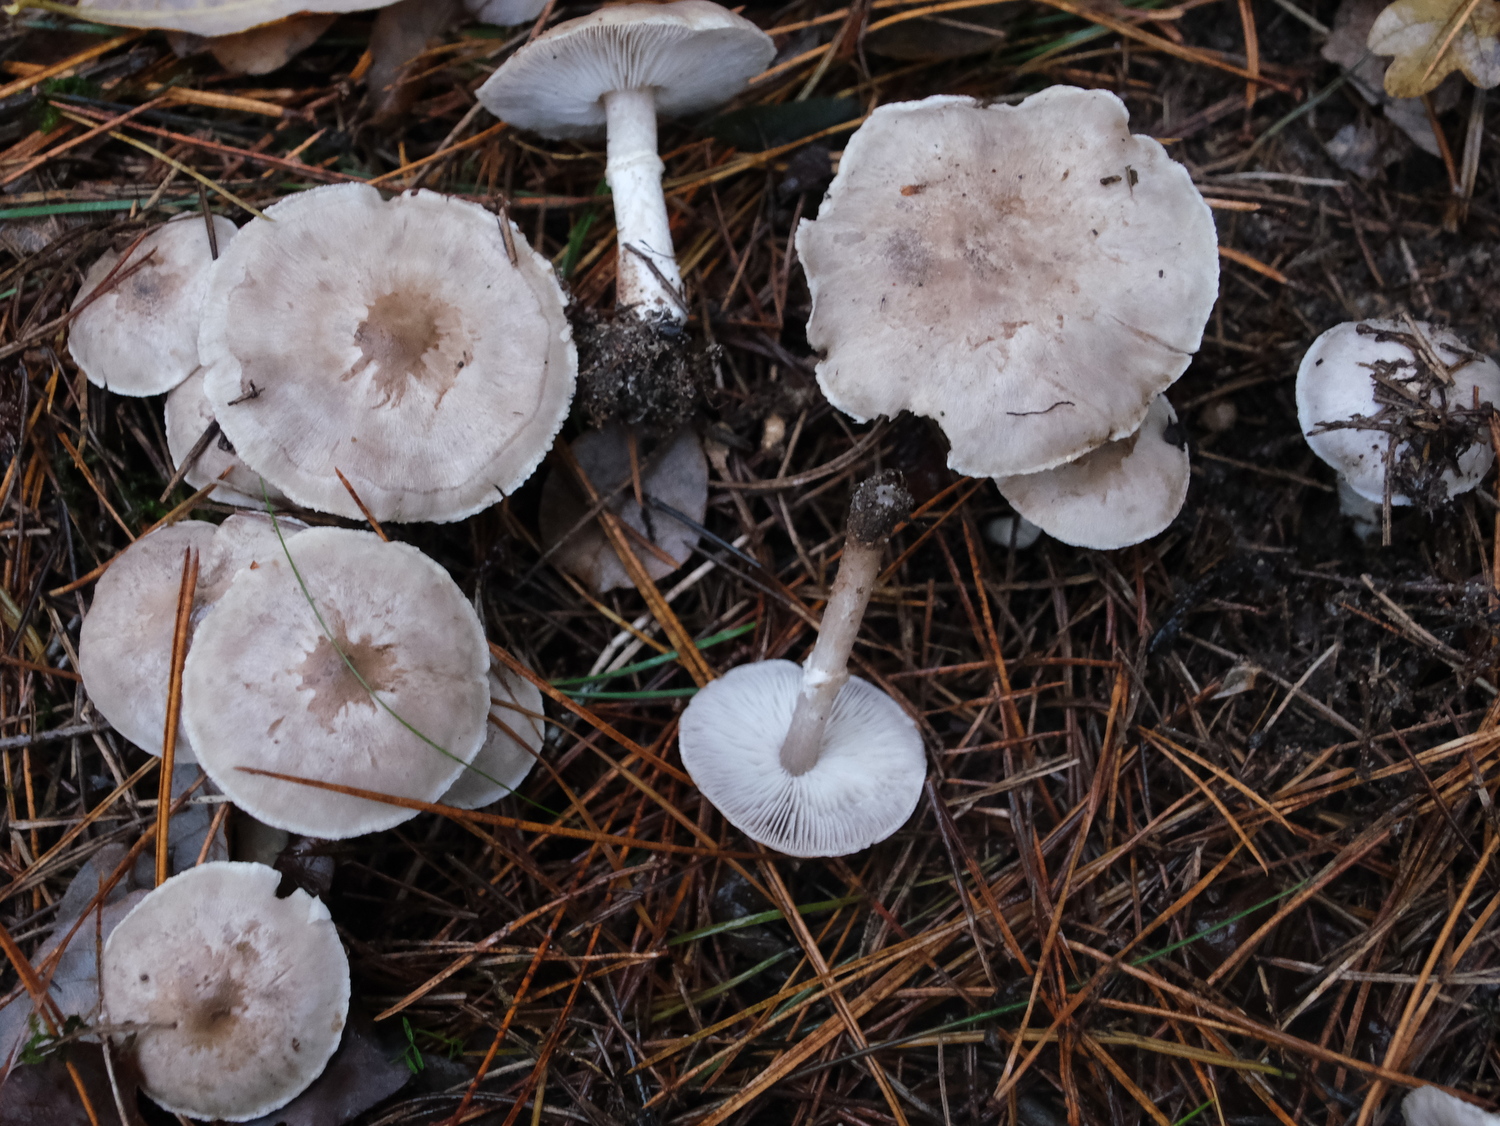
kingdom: Fungi
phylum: Basidiomycota
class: Agaricomycetes
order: Agaricales
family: Tricholomataceae
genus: Tricholoma
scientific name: Tricholoma cingulatum
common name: ring-ridderhat
